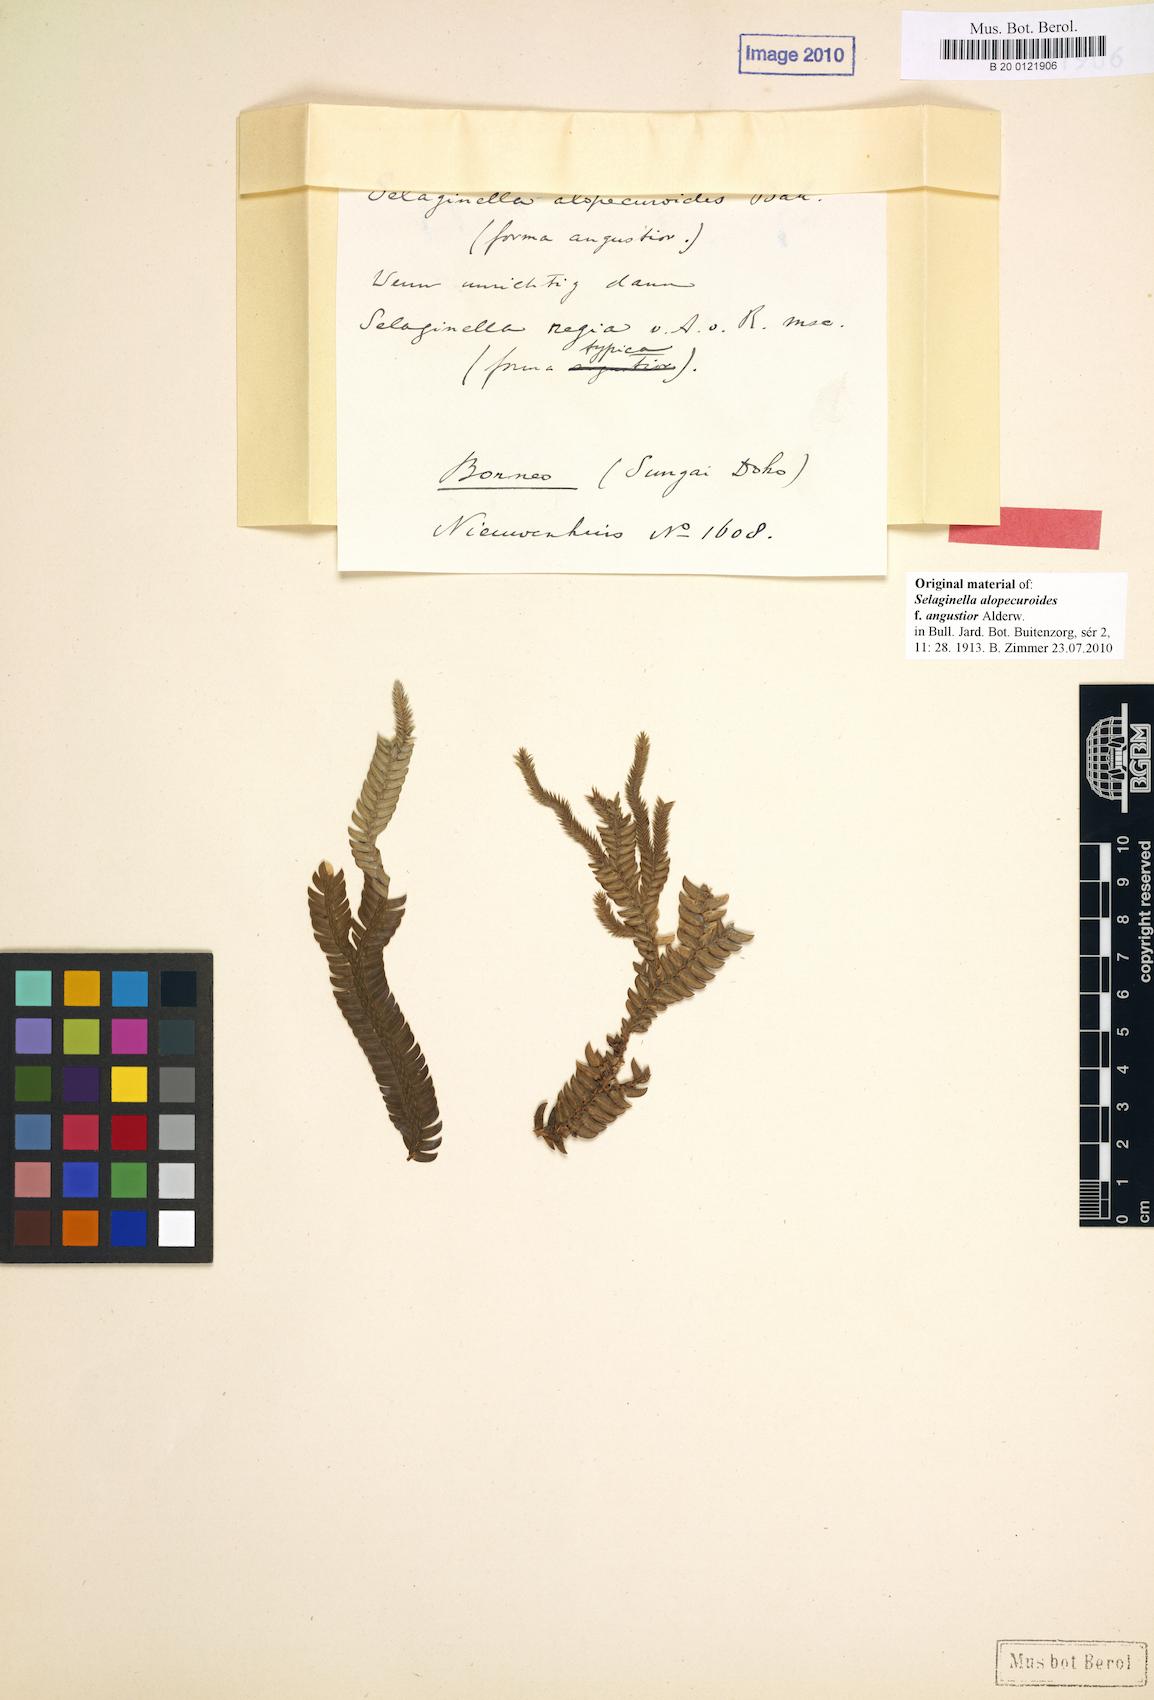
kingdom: Plantae
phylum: Tracheophyta
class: Lycopodiopsida
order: Selaginellales
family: Selaginellaceae
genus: Selaginella
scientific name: Selaginella alopecuroides
